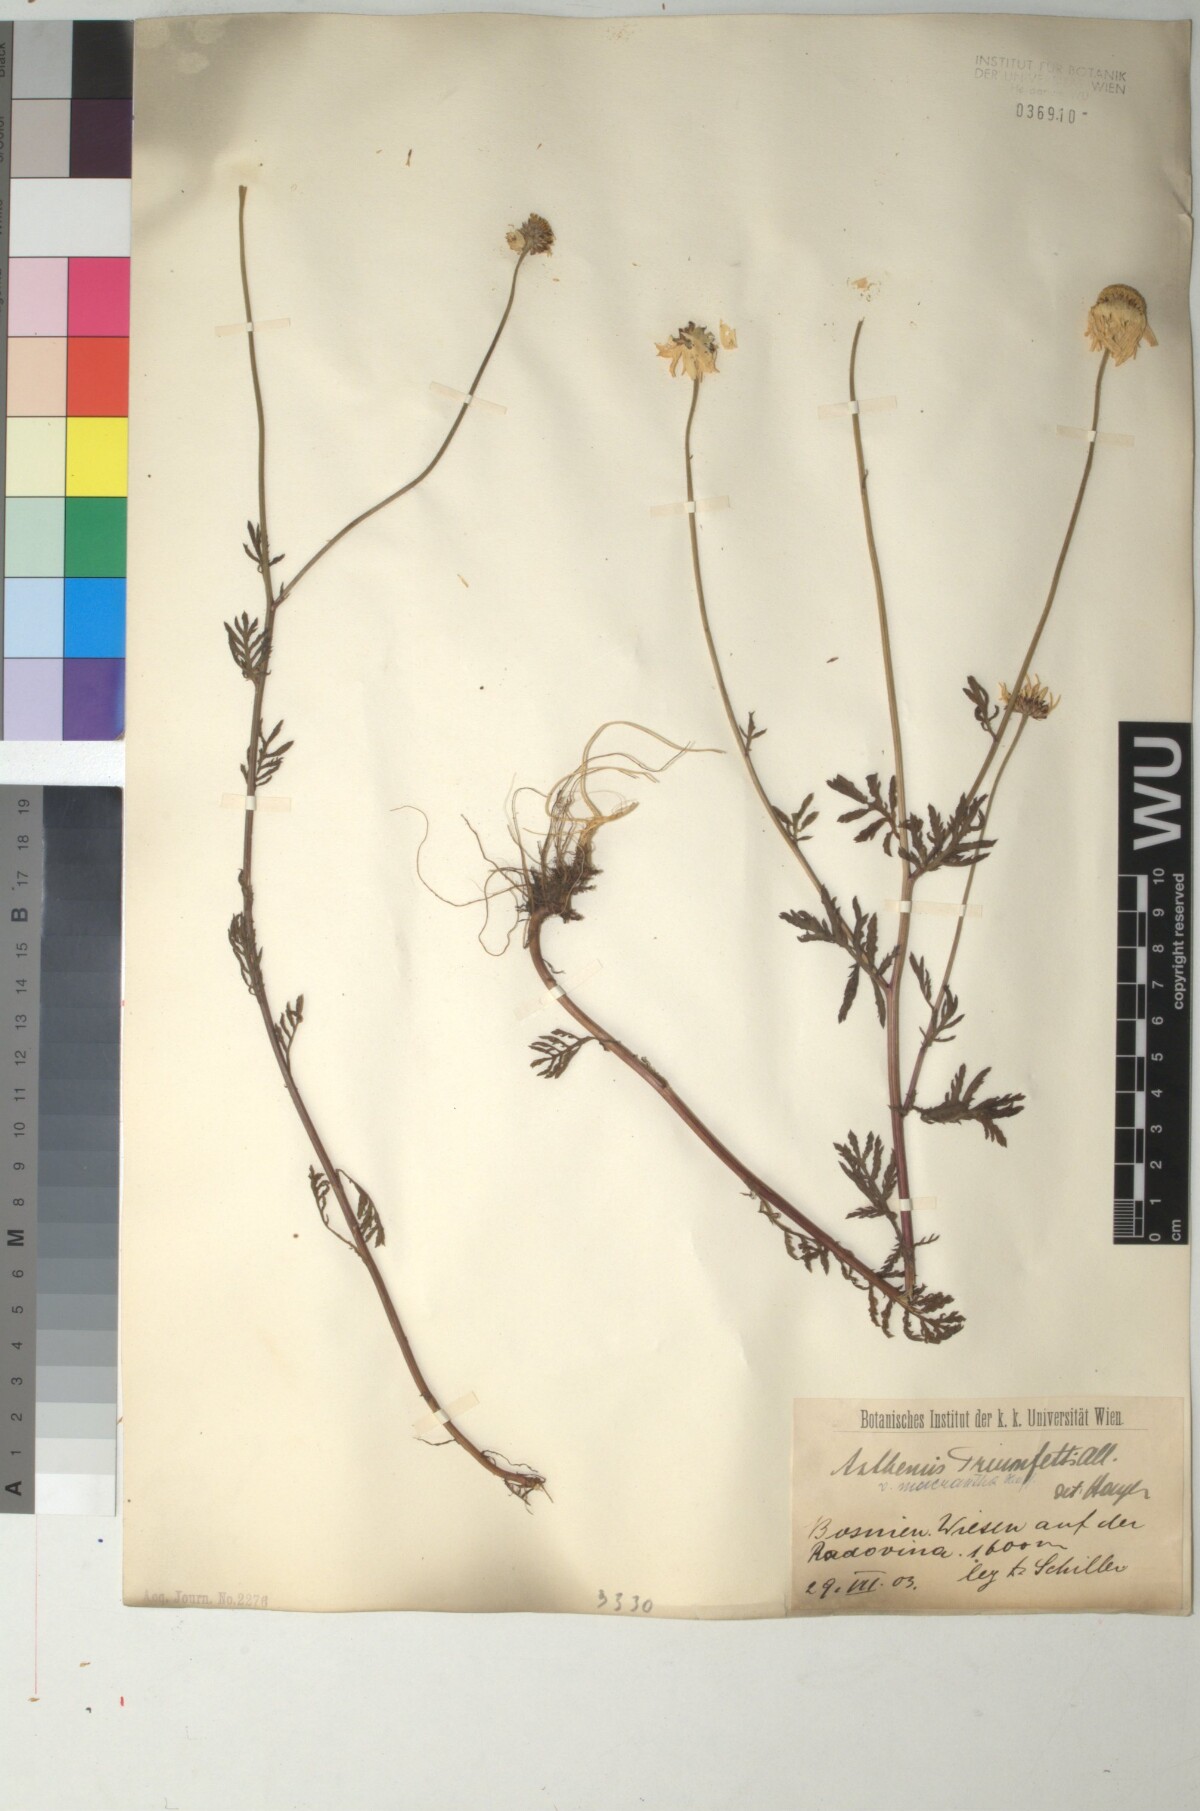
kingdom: Plantae
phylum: Tracheophyta
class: Magnoliopsida
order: Asterales
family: Asteraceae
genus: Cota
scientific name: Cota triumfetti
